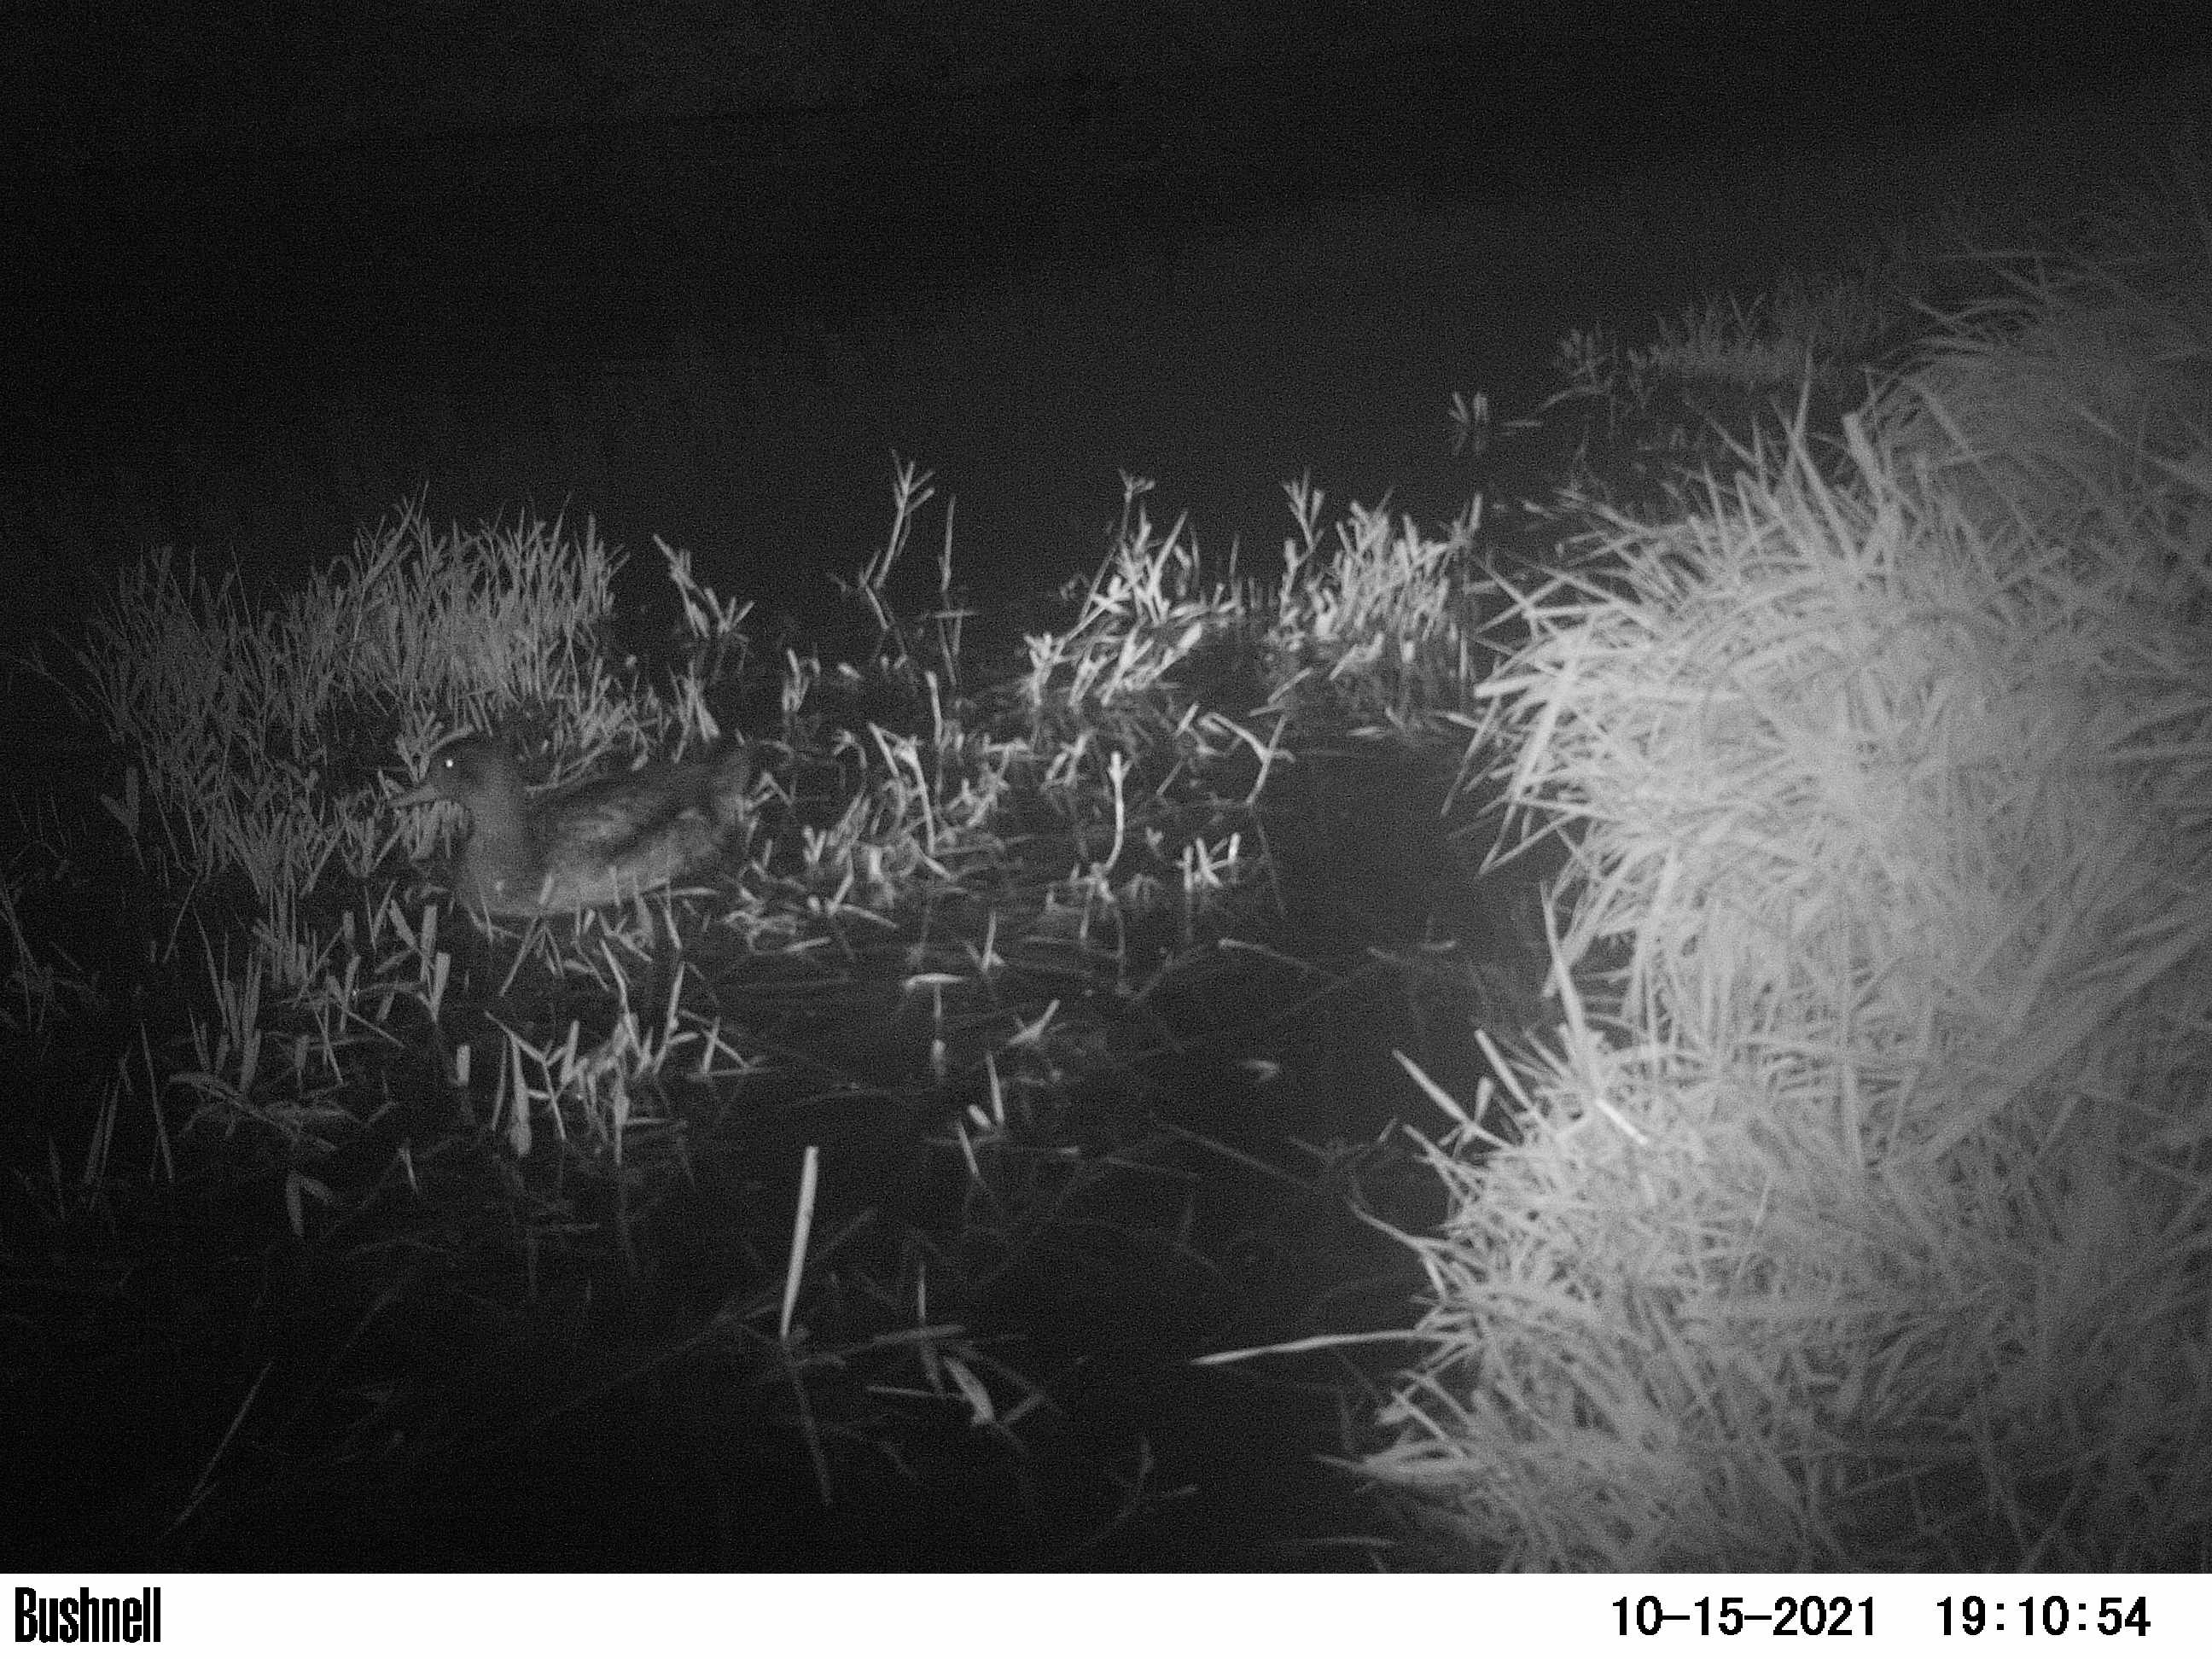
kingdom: Animalia
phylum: Chordata
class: Aves
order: Anseriformes
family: Anatidae
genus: Anas
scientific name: Anas
